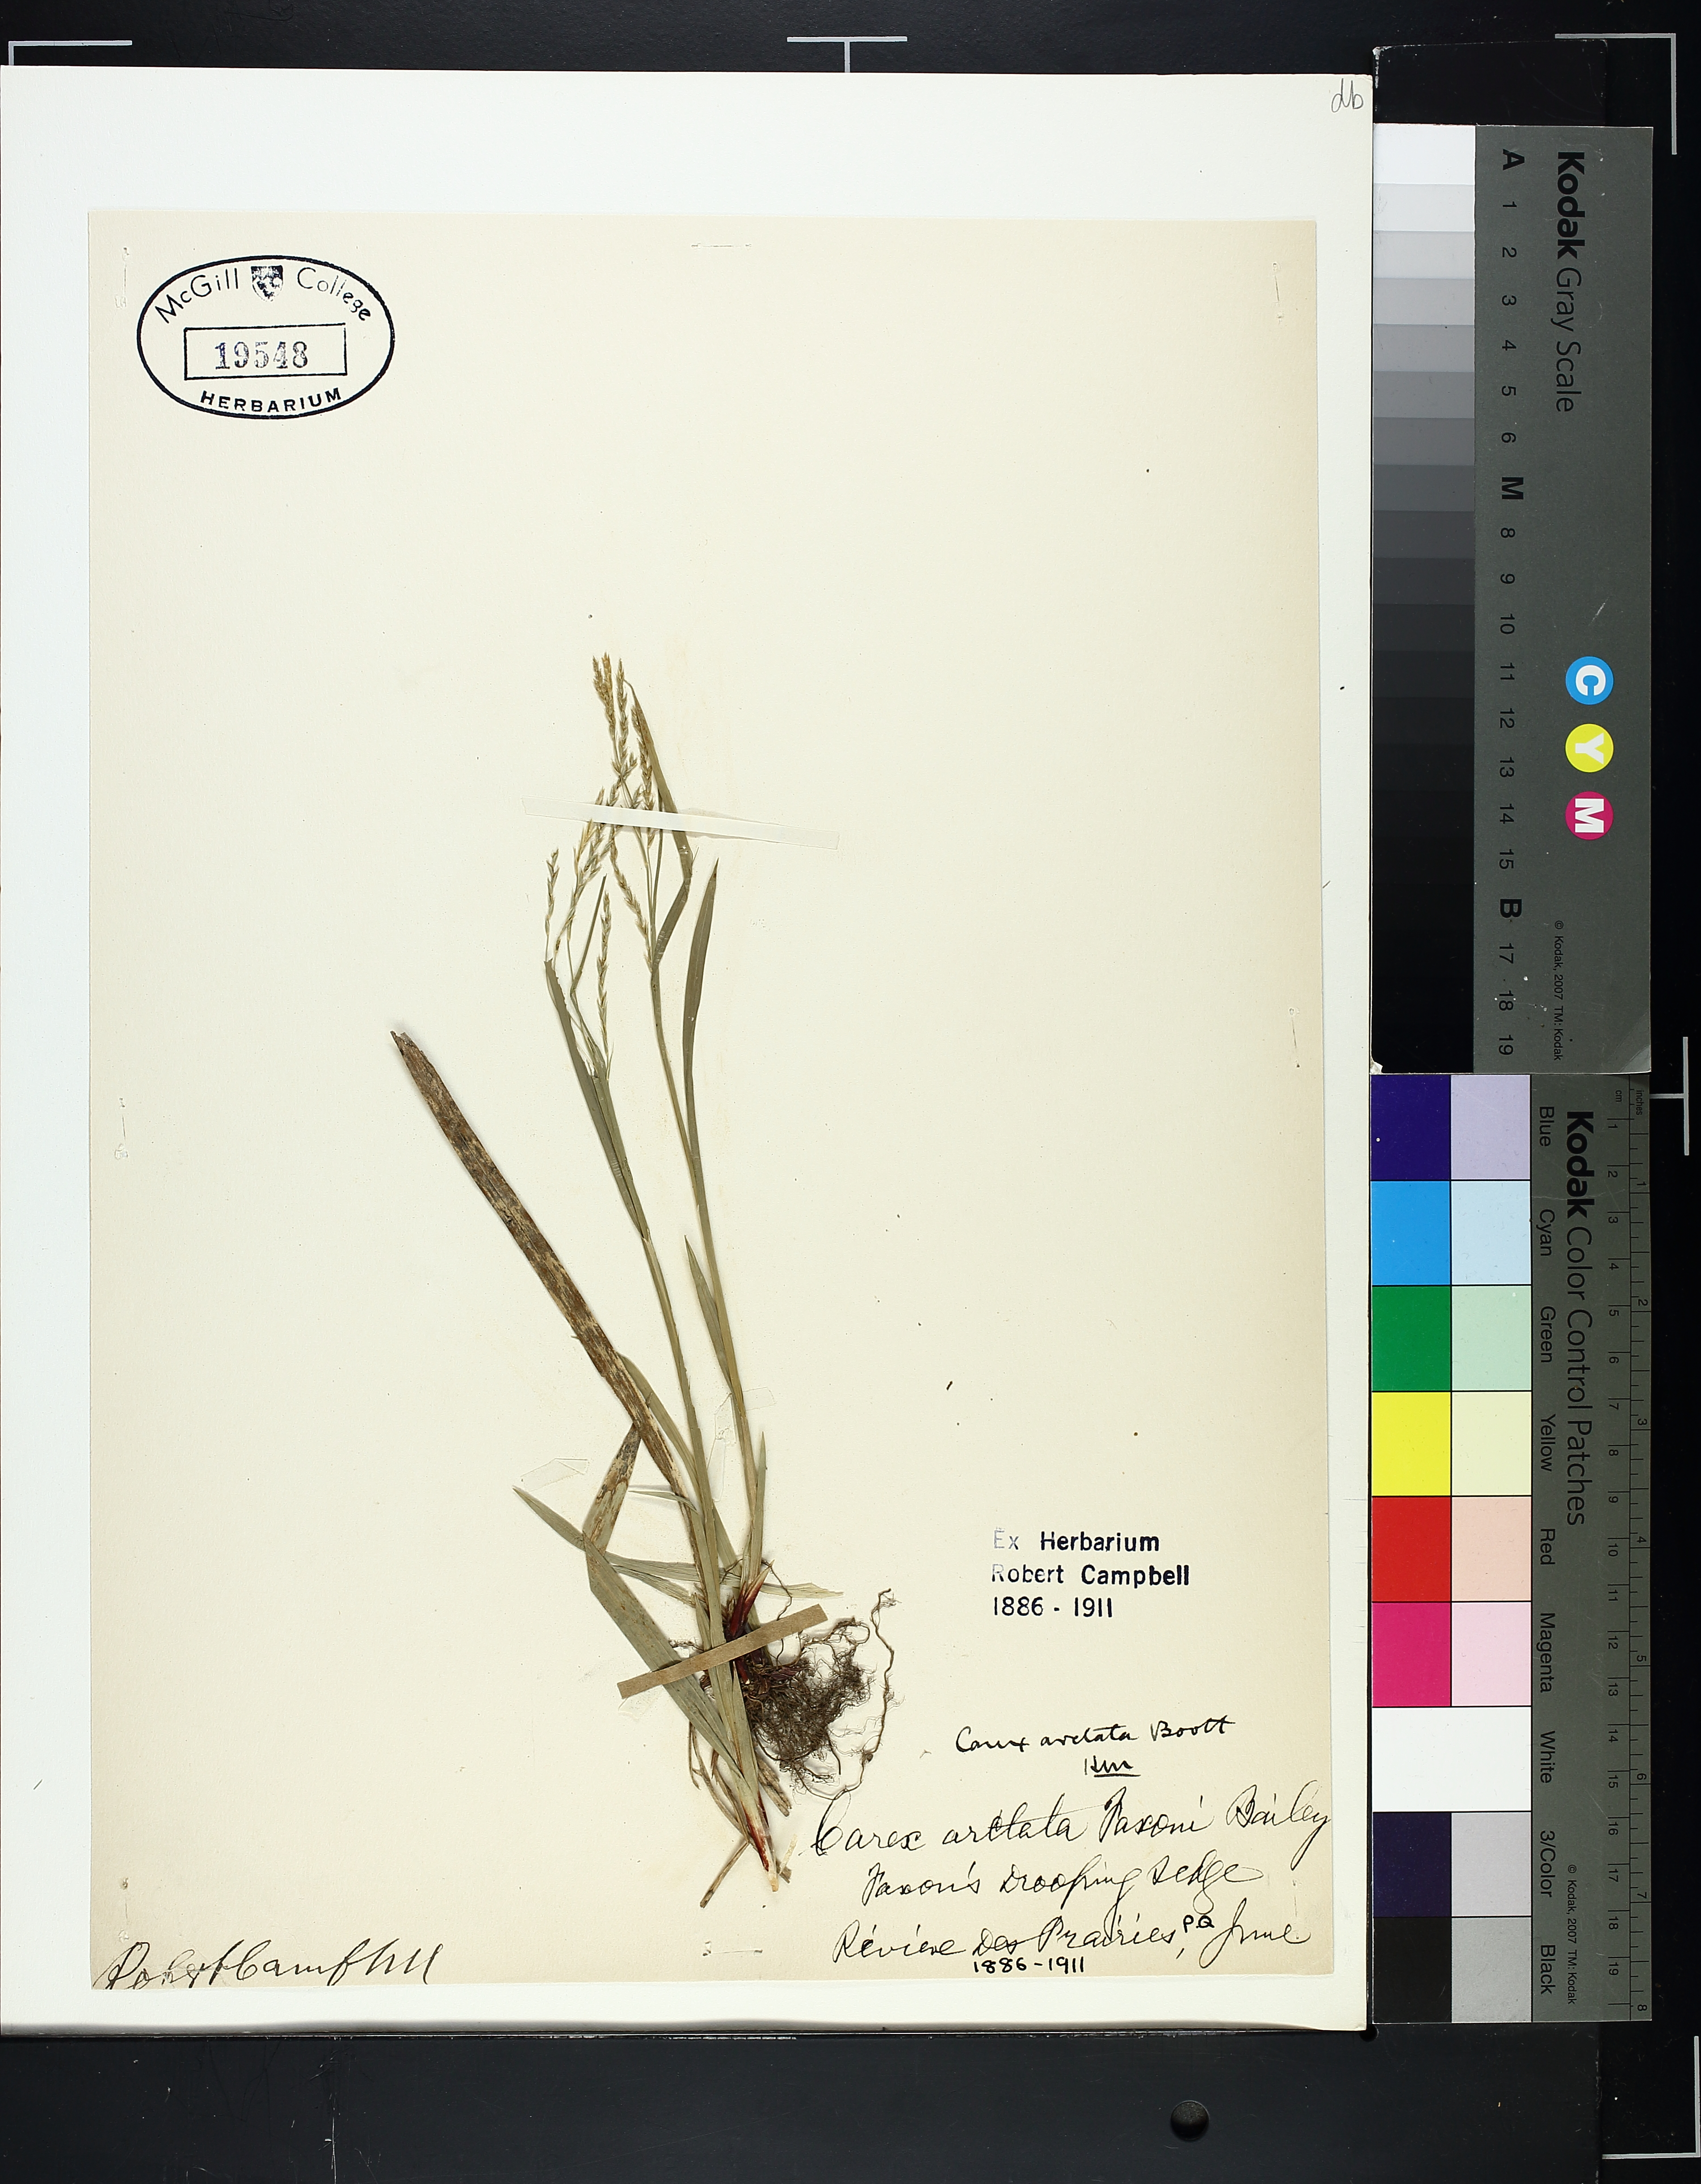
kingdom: Plantae
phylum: Tracheophyta
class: Liliopsida
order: Poales
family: Cyperaceae
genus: Carex
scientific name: Carex arctata
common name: Black sedge
